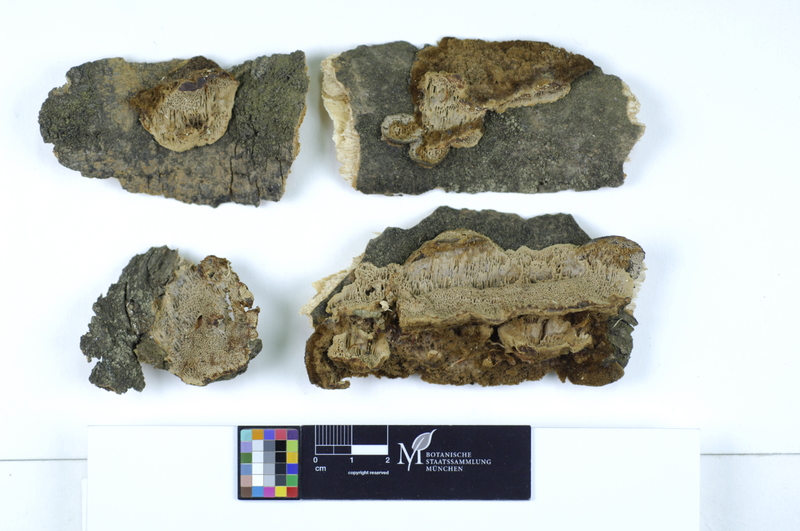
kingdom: Plantae
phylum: Tracheophyta
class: Magnoliopsida
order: Lamiales
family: Oleaceae
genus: Fraxinus
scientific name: Fraxinus
